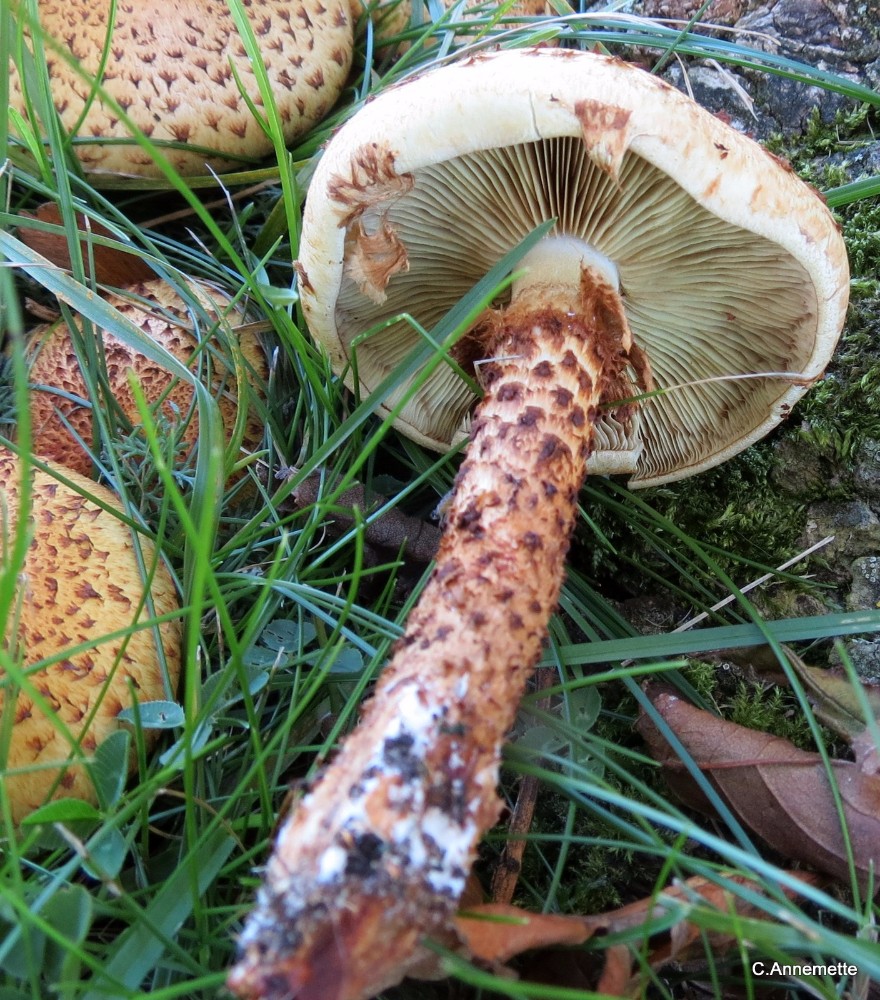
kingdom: Fungi
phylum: Basidiomycota
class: Agaricomycetes
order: Agaricales
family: Strophariaceae
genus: Pholiota
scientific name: Pholiota squarrosa
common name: krumskællet skælhat
